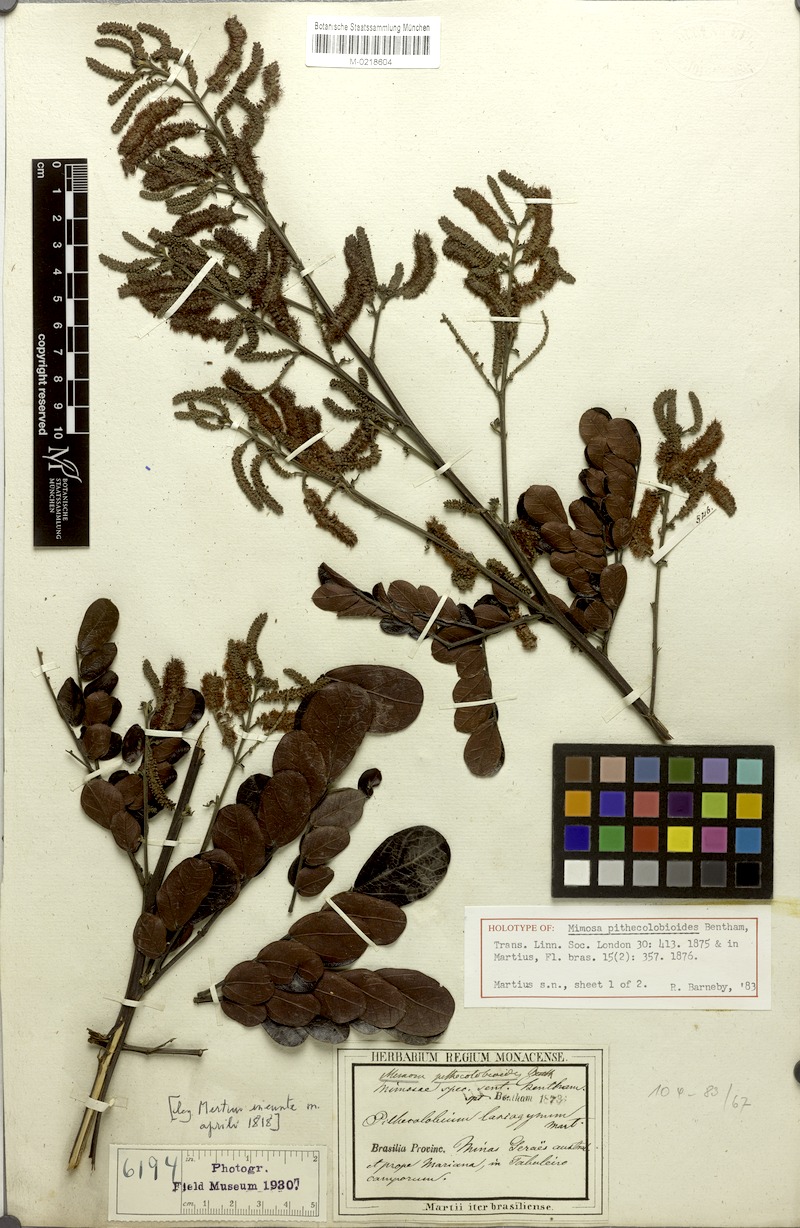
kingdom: Plantae
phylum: Tracheophyta
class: Magnoliopsida
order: Fabales
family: Fabaceae
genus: Mimosa
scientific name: Mimosa pithecolobioides
